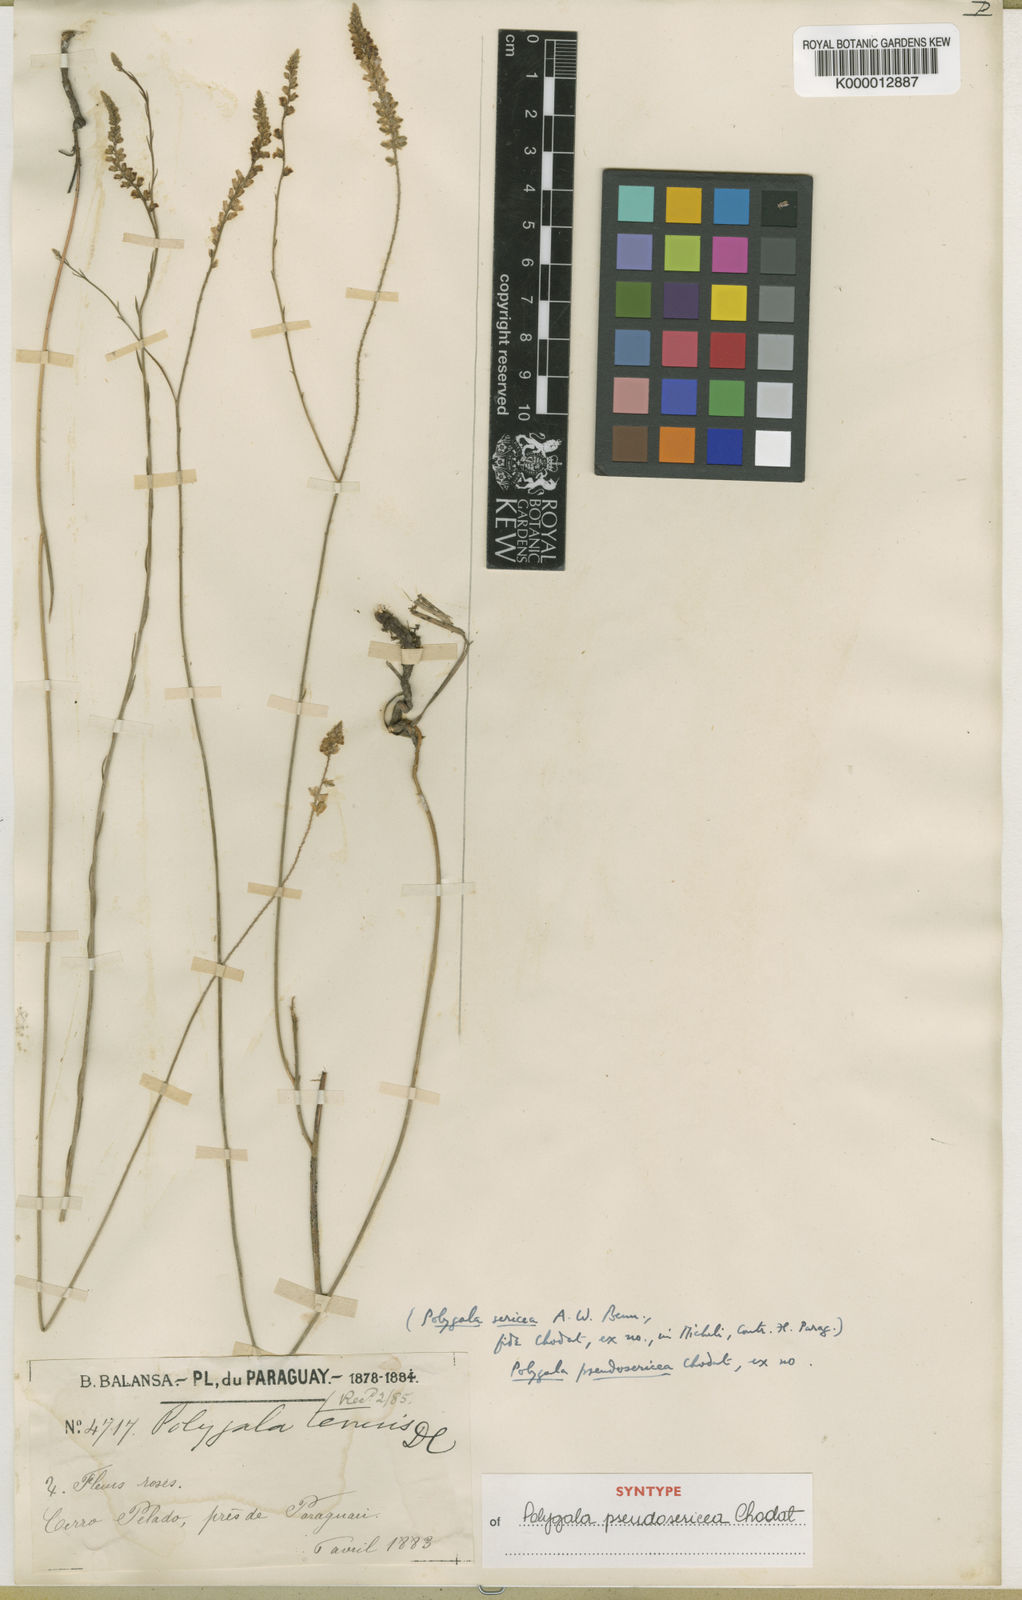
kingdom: Plantae
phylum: Tracheophyta
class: Magnoliopsida
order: Fabales
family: Polygalaceae
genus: Polygala
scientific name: Polygala pseudosericea
